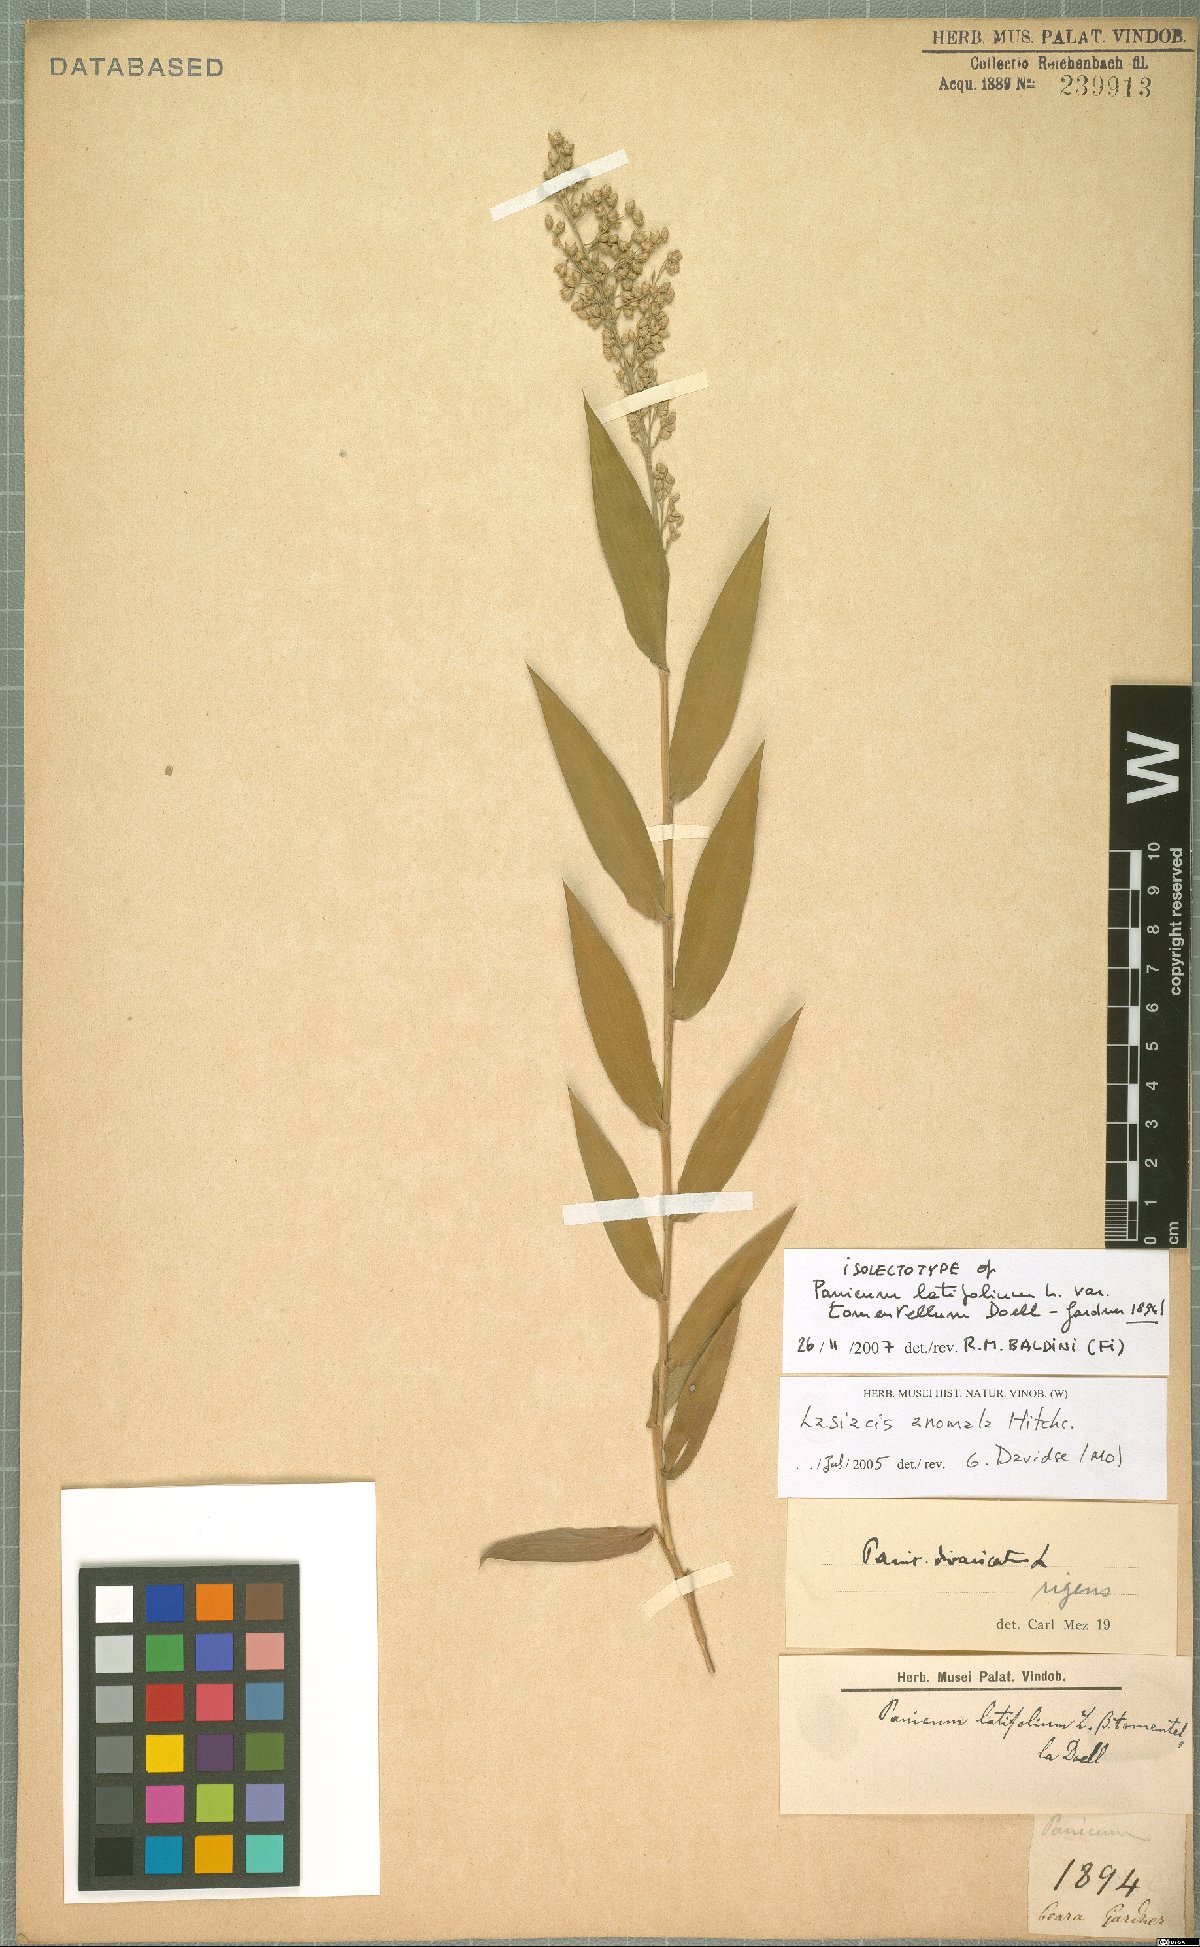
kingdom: Plantae
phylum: Tracheophyta
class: Liliopsida
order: Poales
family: Poaceae
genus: Lasiacis
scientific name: Lasiacis anomala
